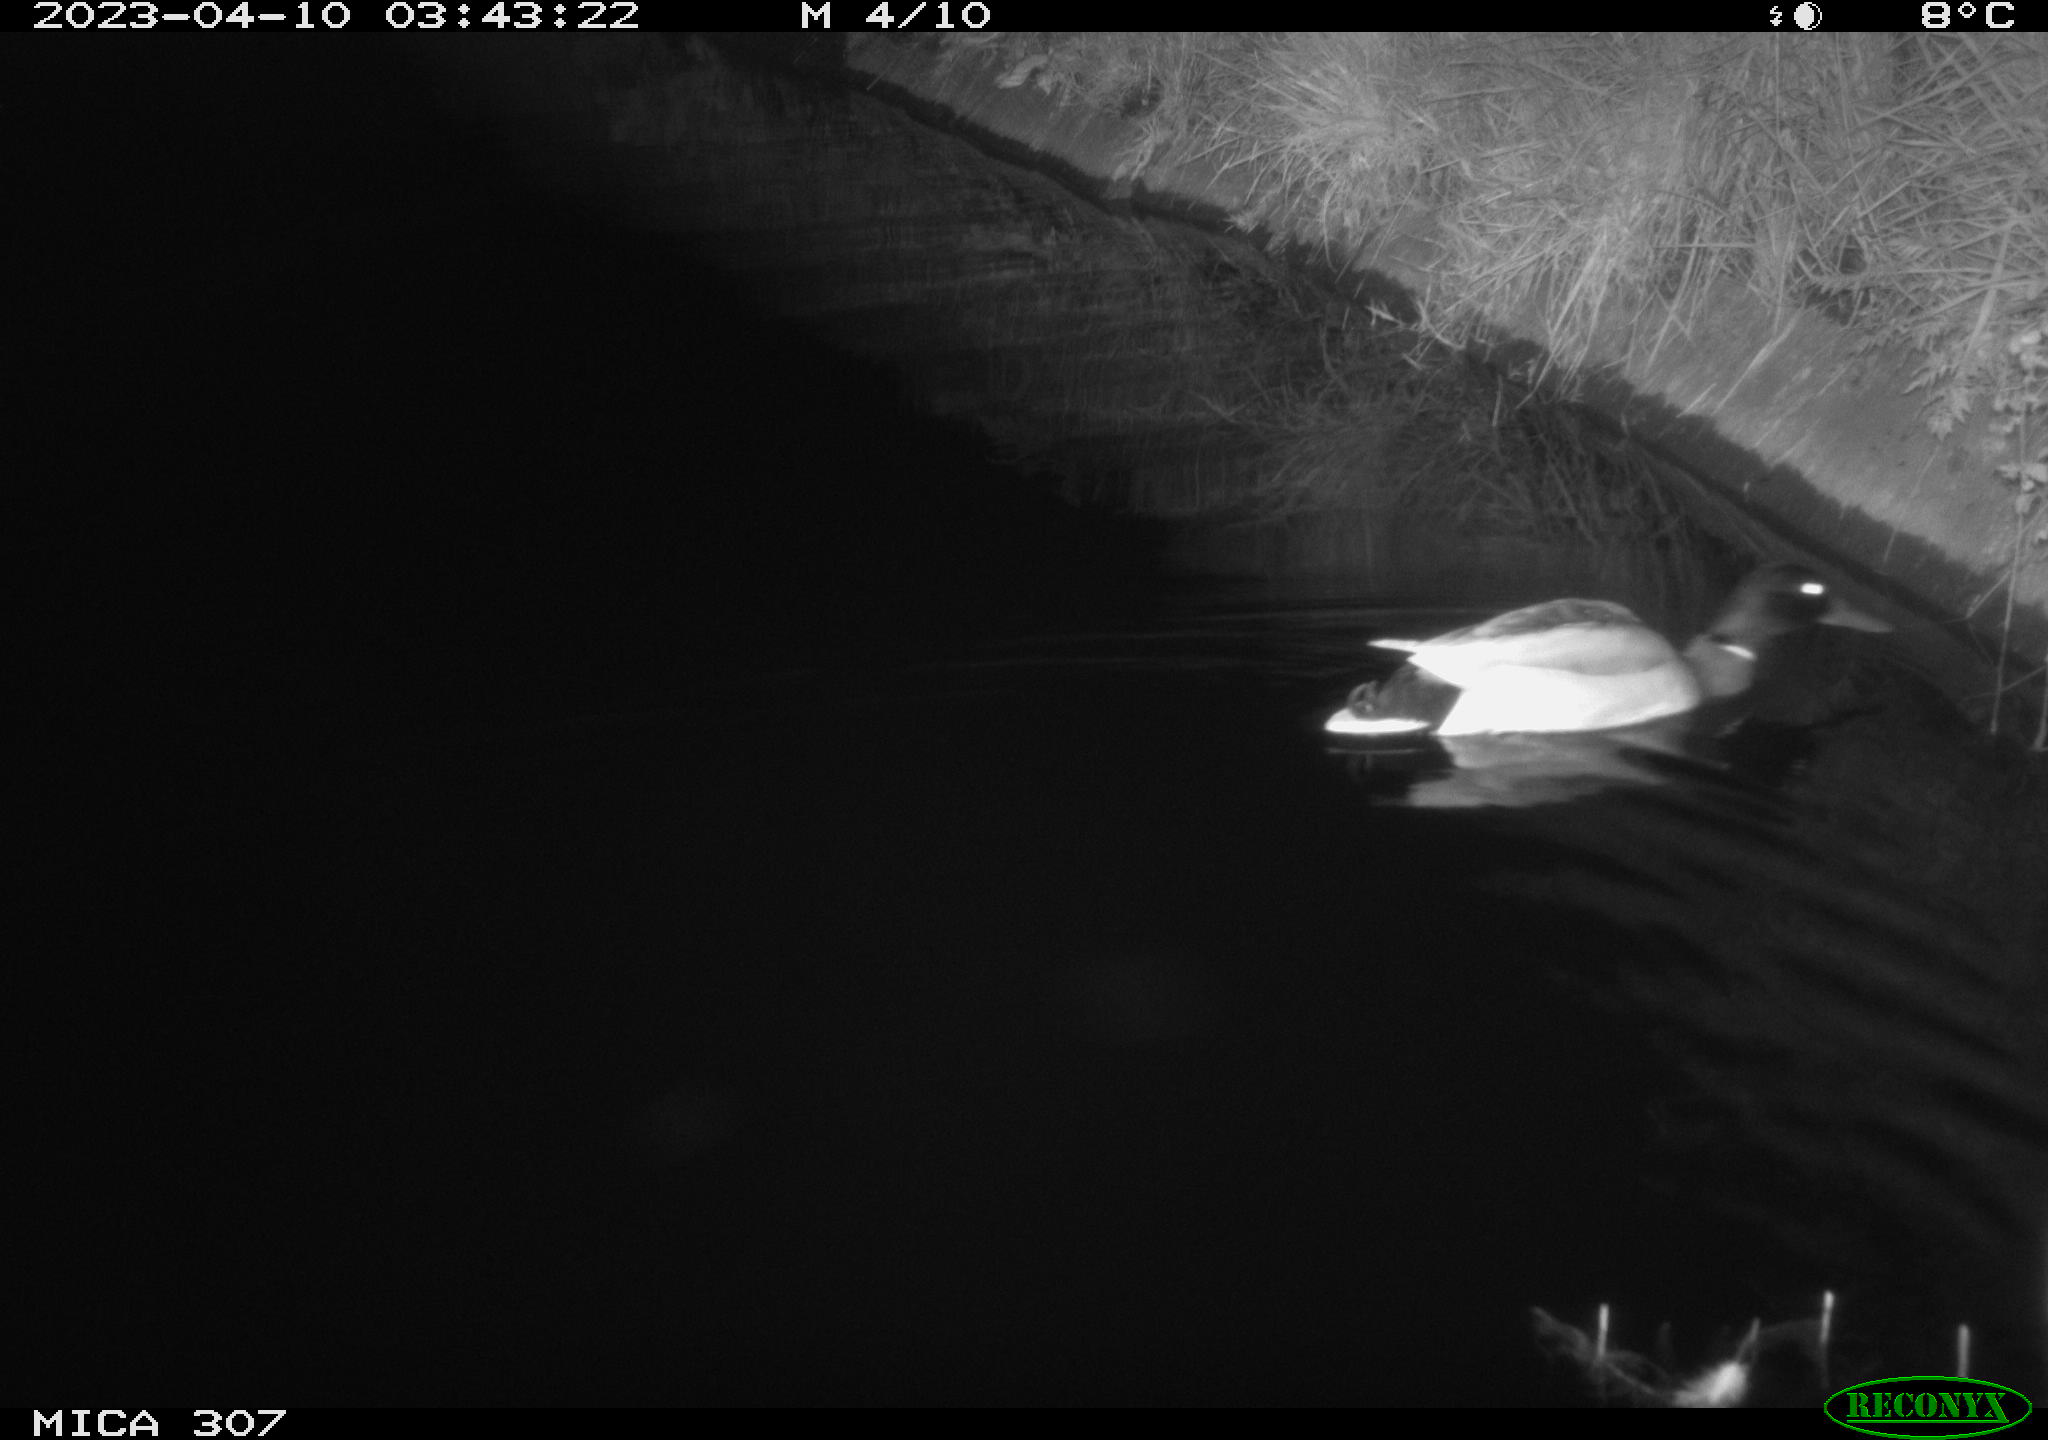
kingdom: Animalia
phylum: Chordata
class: Aves
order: Anseriformes
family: Anatidae
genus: Anas
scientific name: Anas
